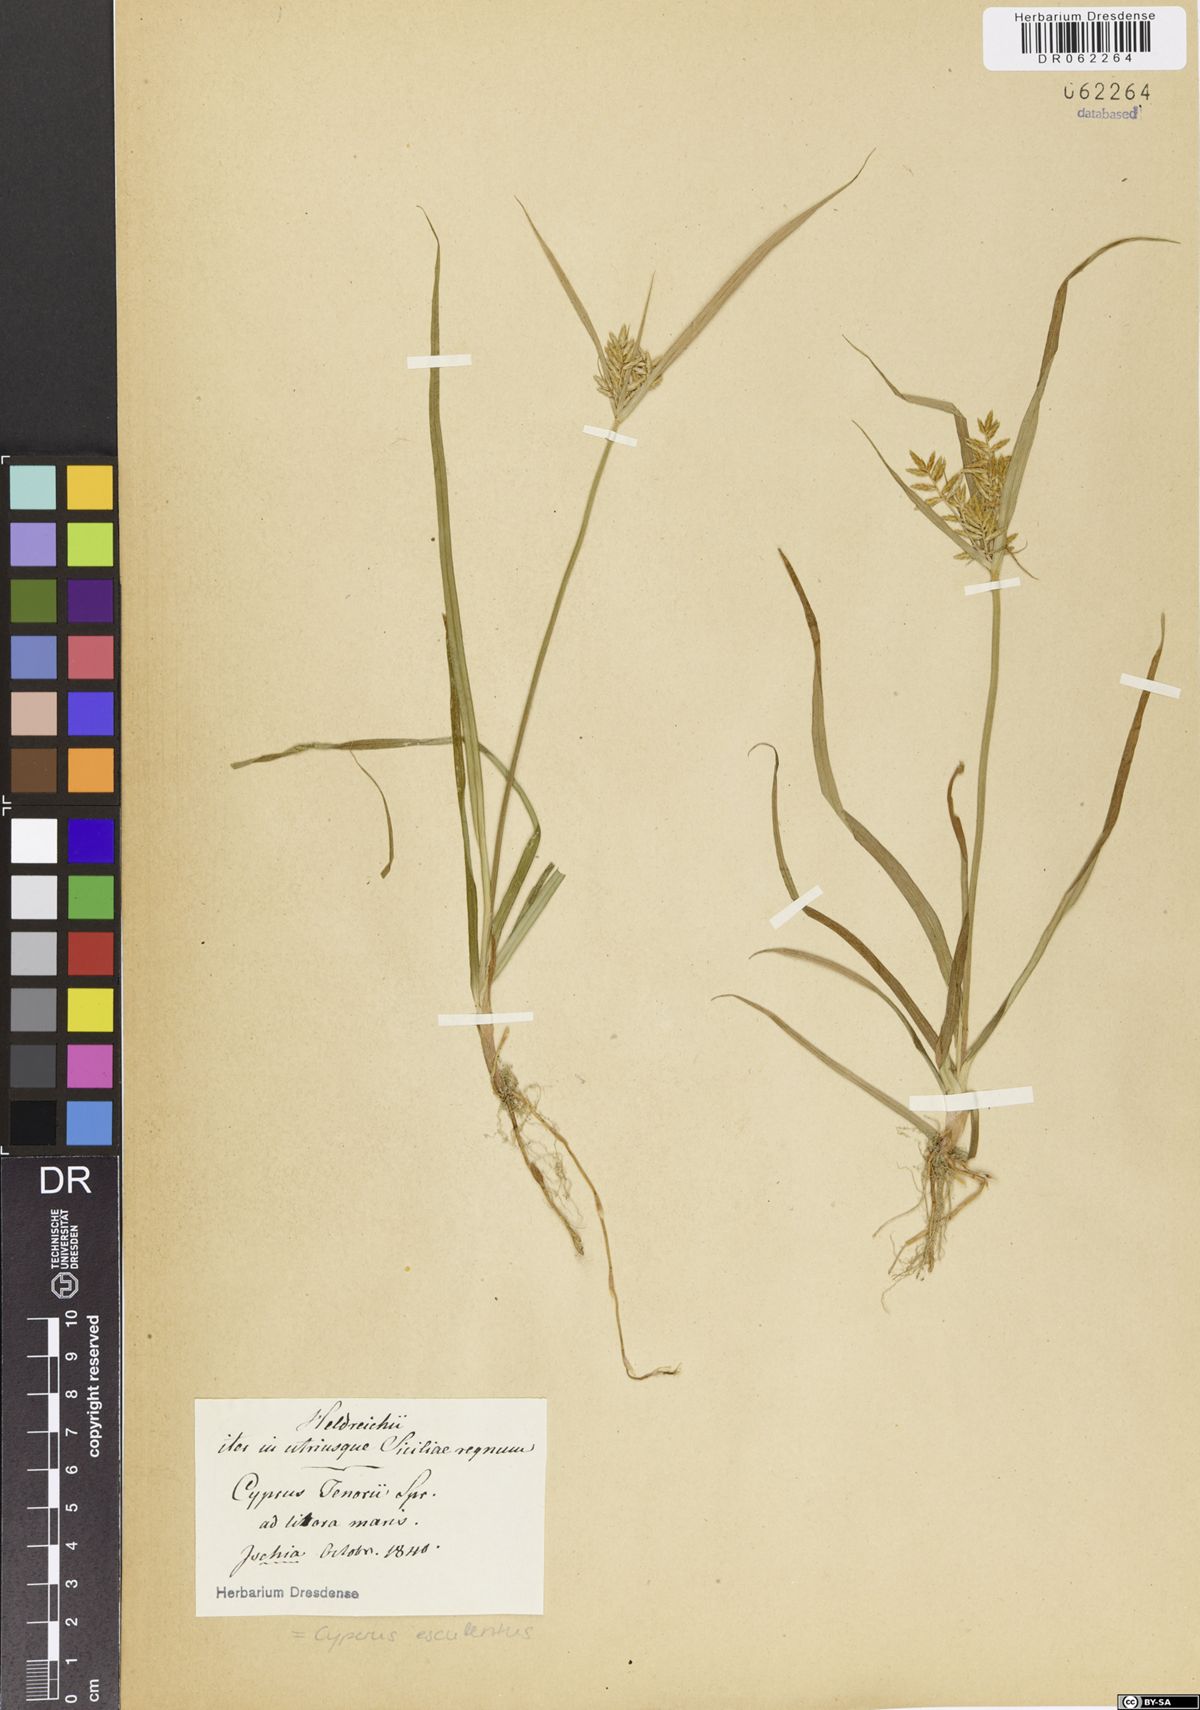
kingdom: Plantae
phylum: Tracheophyta
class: Liliopsida
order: Poales
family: Cyperaceae
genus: Cyperus
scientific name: Cyperus esculentus
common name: Yellow nutsedge
